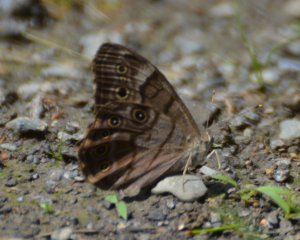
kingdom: Animalia
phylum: Arthropoda
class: Insecta
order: Lepidoptera
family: Nymphalidae
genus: Lethe
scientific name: Lethe anthedon
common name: Northern Pearly-Eye
